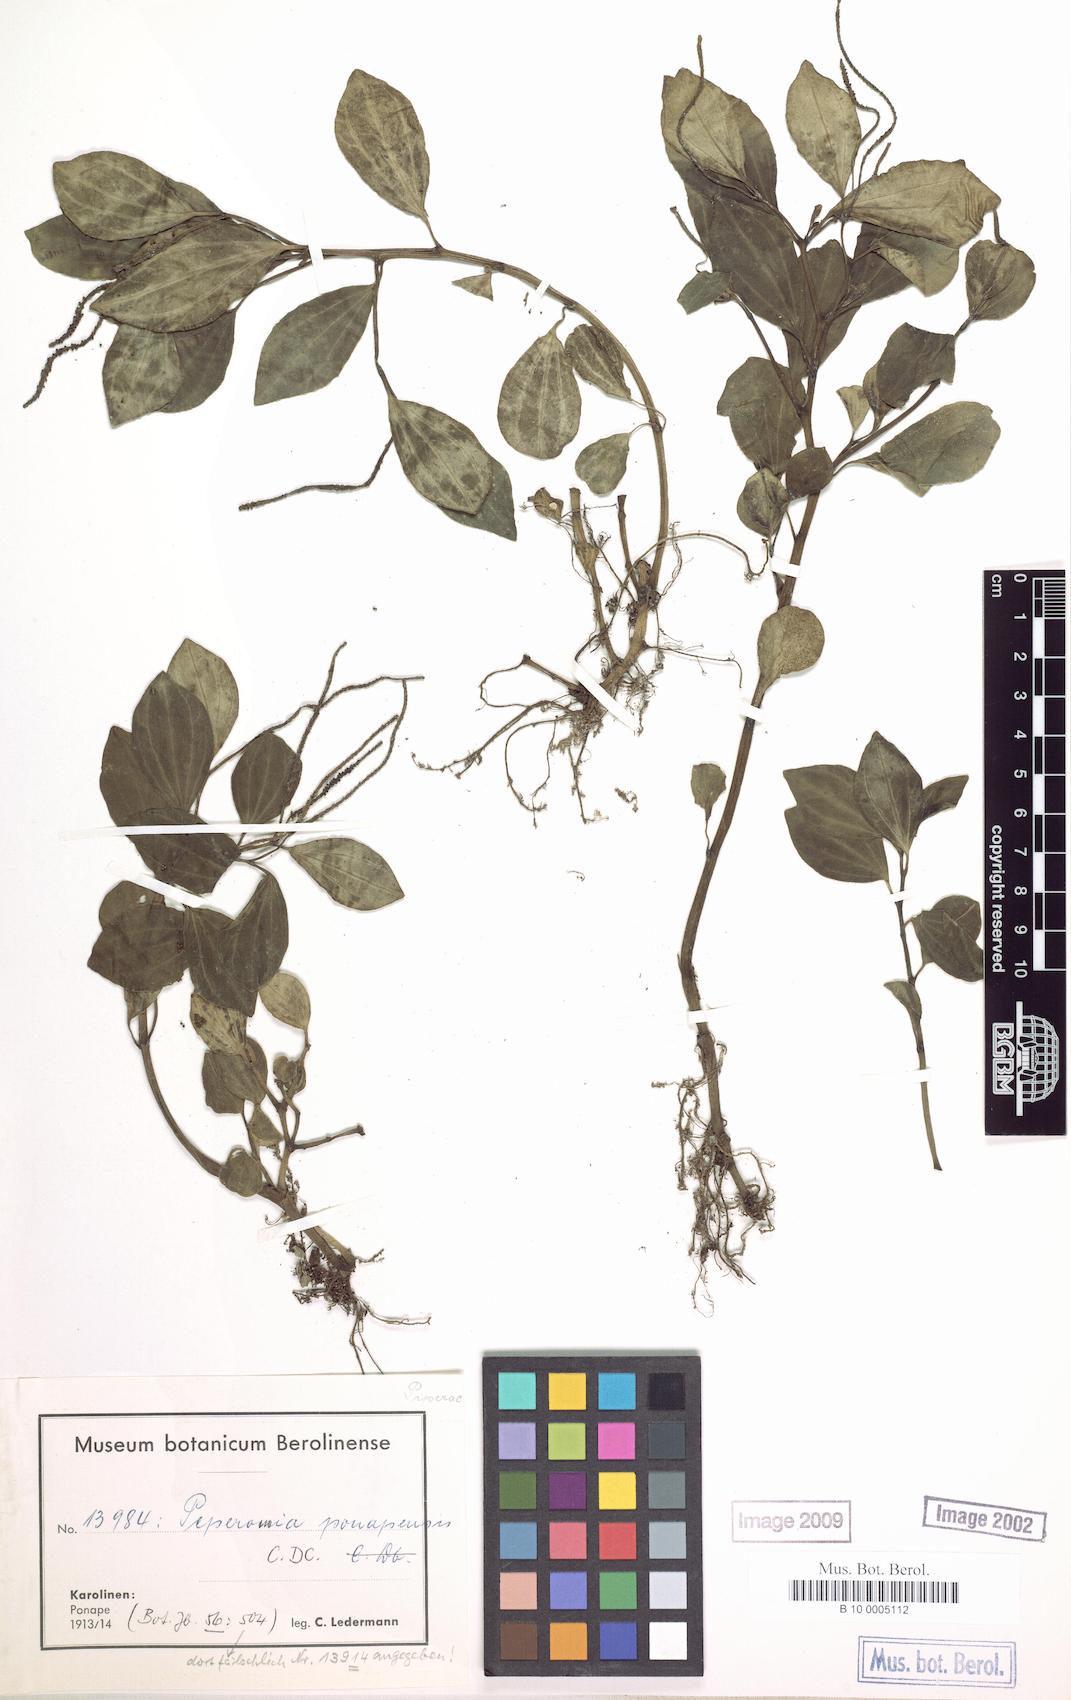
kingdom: Plantae
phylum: Tracheophyta
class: Magnoliopsida
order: Piperales
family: Piperaceae
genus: Peperomia
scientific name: Peperomia ponapensis
